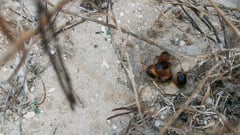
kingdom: Animalia
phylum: Arthropoda
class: Insecta
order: Coleoptera
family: Scarabaeidae
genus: Ceramida
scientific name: Ceramida bedeaui
